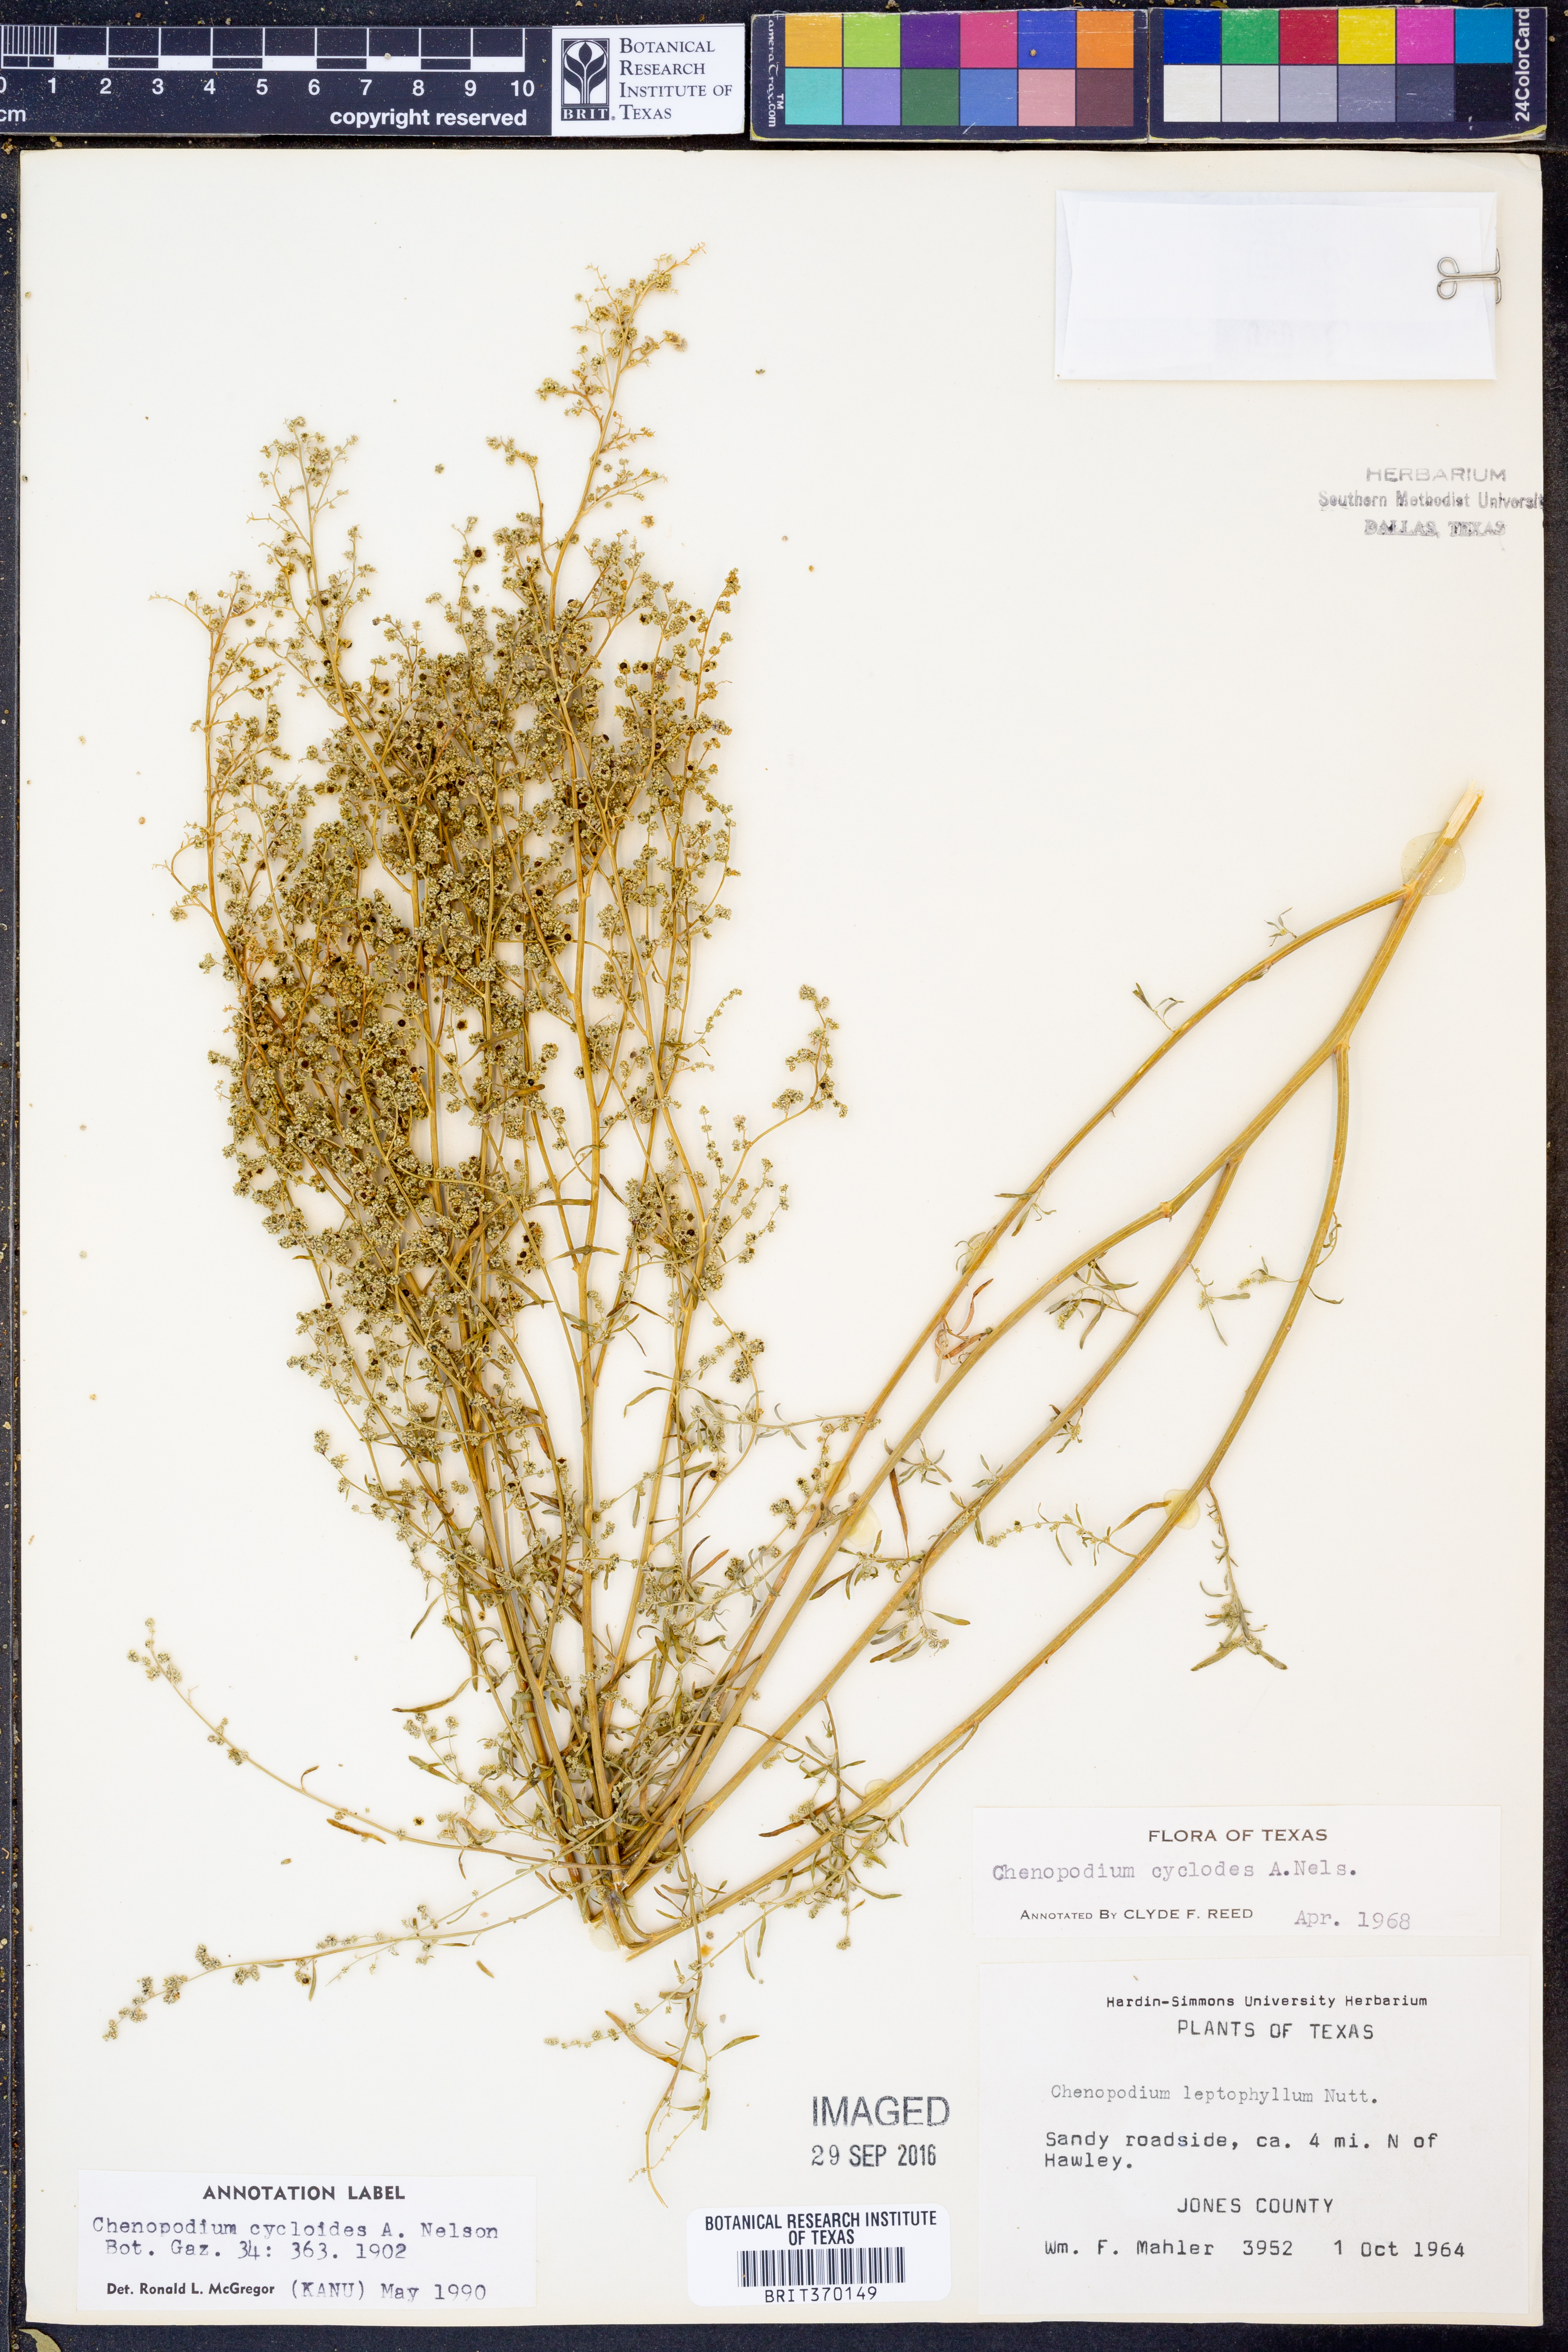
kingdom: Plantae
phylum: Tracheophyta
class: Magnoliopsida
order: Caryophyllales
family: Amaranthaceae
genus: Chenopodium
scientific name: Chenopodium cycloides
